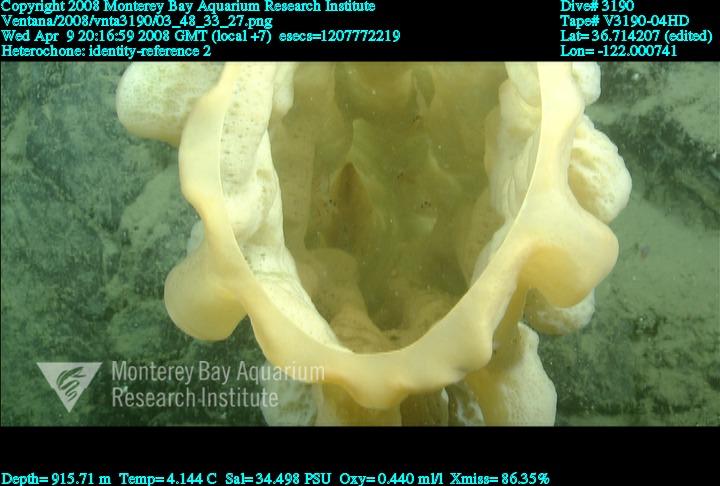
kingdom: Animalia
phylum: Porifera
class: Hexactinellida
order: Sceptrulophora
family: Aphrocallistidae
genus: Heterochone
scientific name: Heterochone
